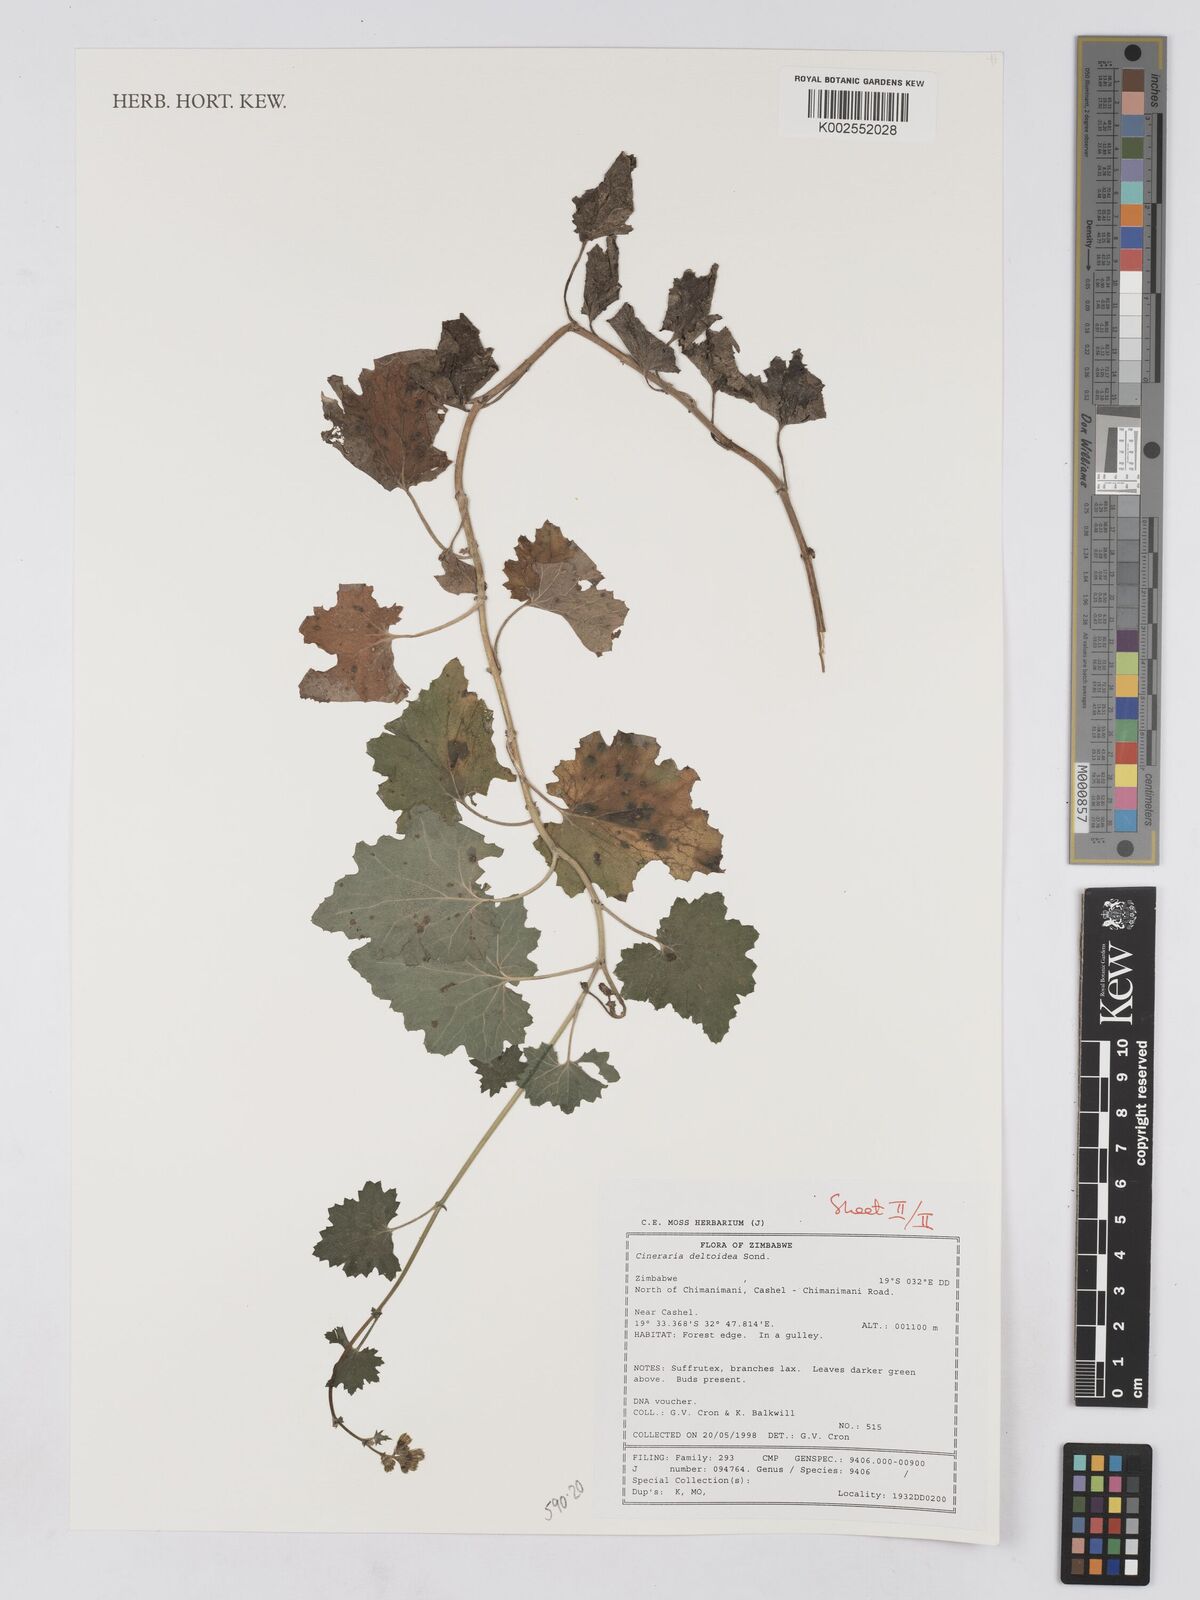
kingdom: Plantae
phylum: Tracheophyta
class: Magnoliopsida
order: Asterales
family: Asteraceae
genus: Cineraria
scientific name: Cineraria deltoidea
